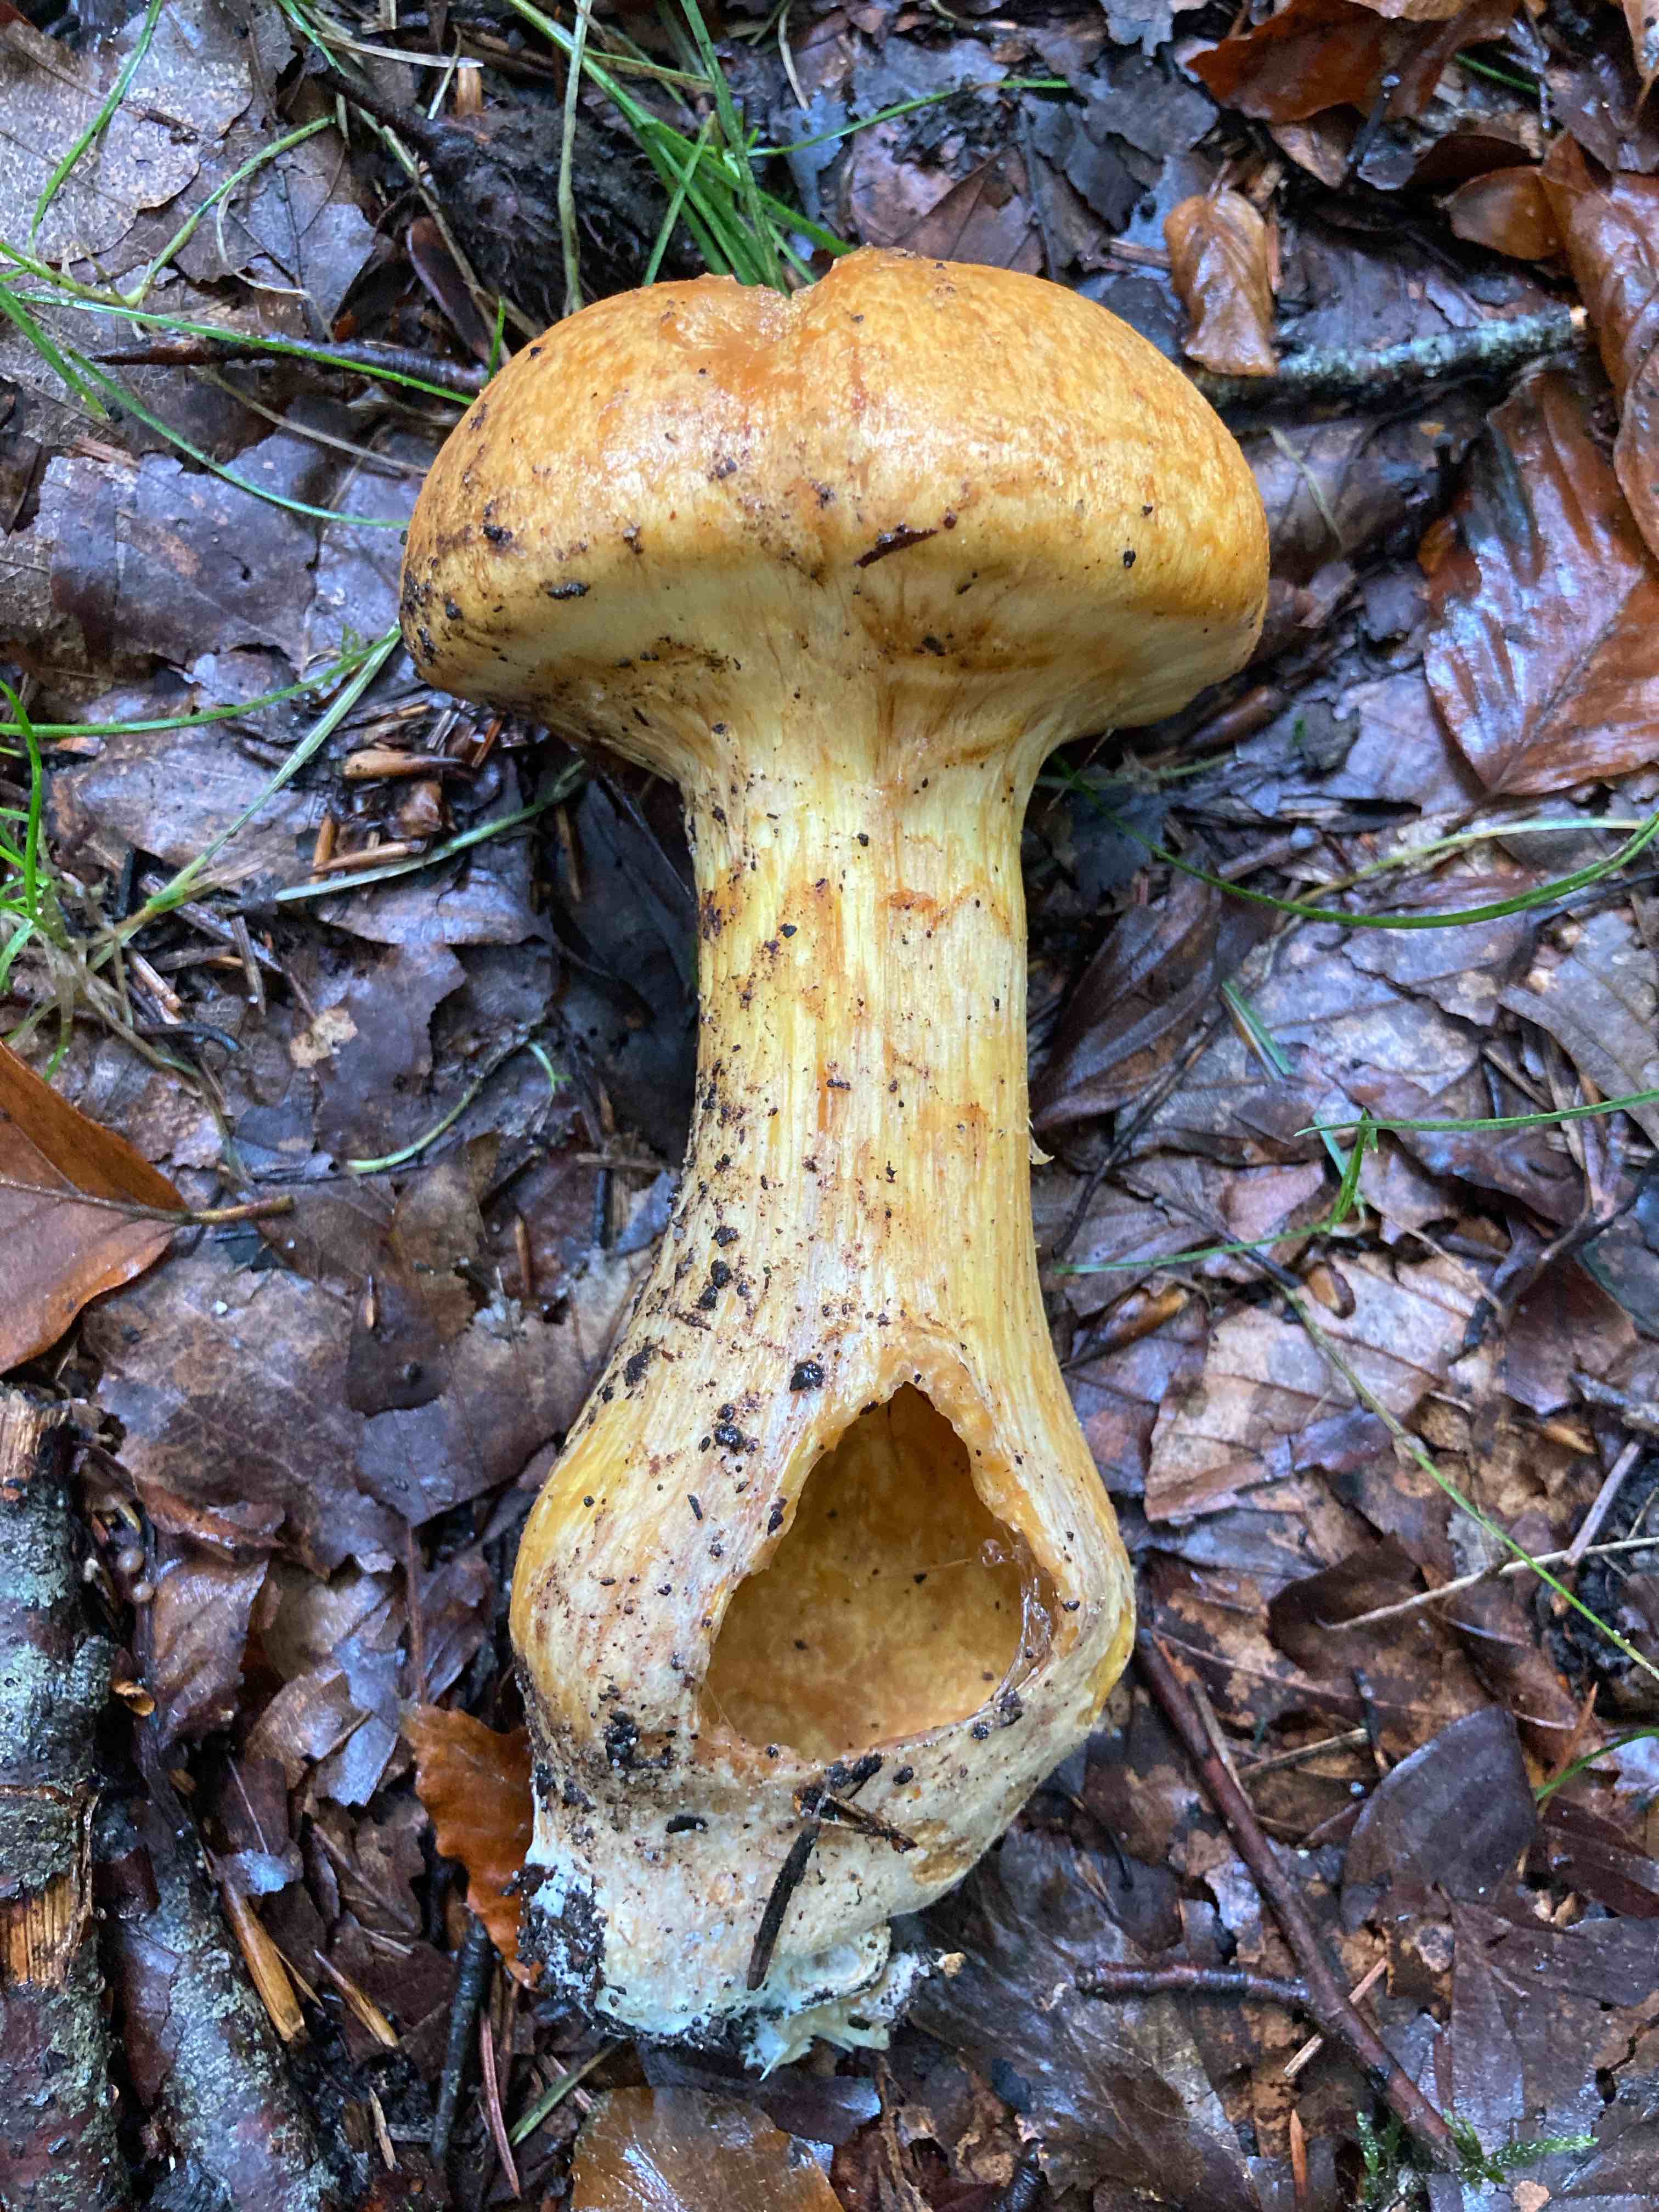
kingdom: Fungi
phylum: Basidiomycota
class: Agaricomycetes
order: Agaricales
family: Hymenogastraceae
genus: Gymnopilus
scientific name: Gymnopilus spectabilis
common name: fibret flammehat
